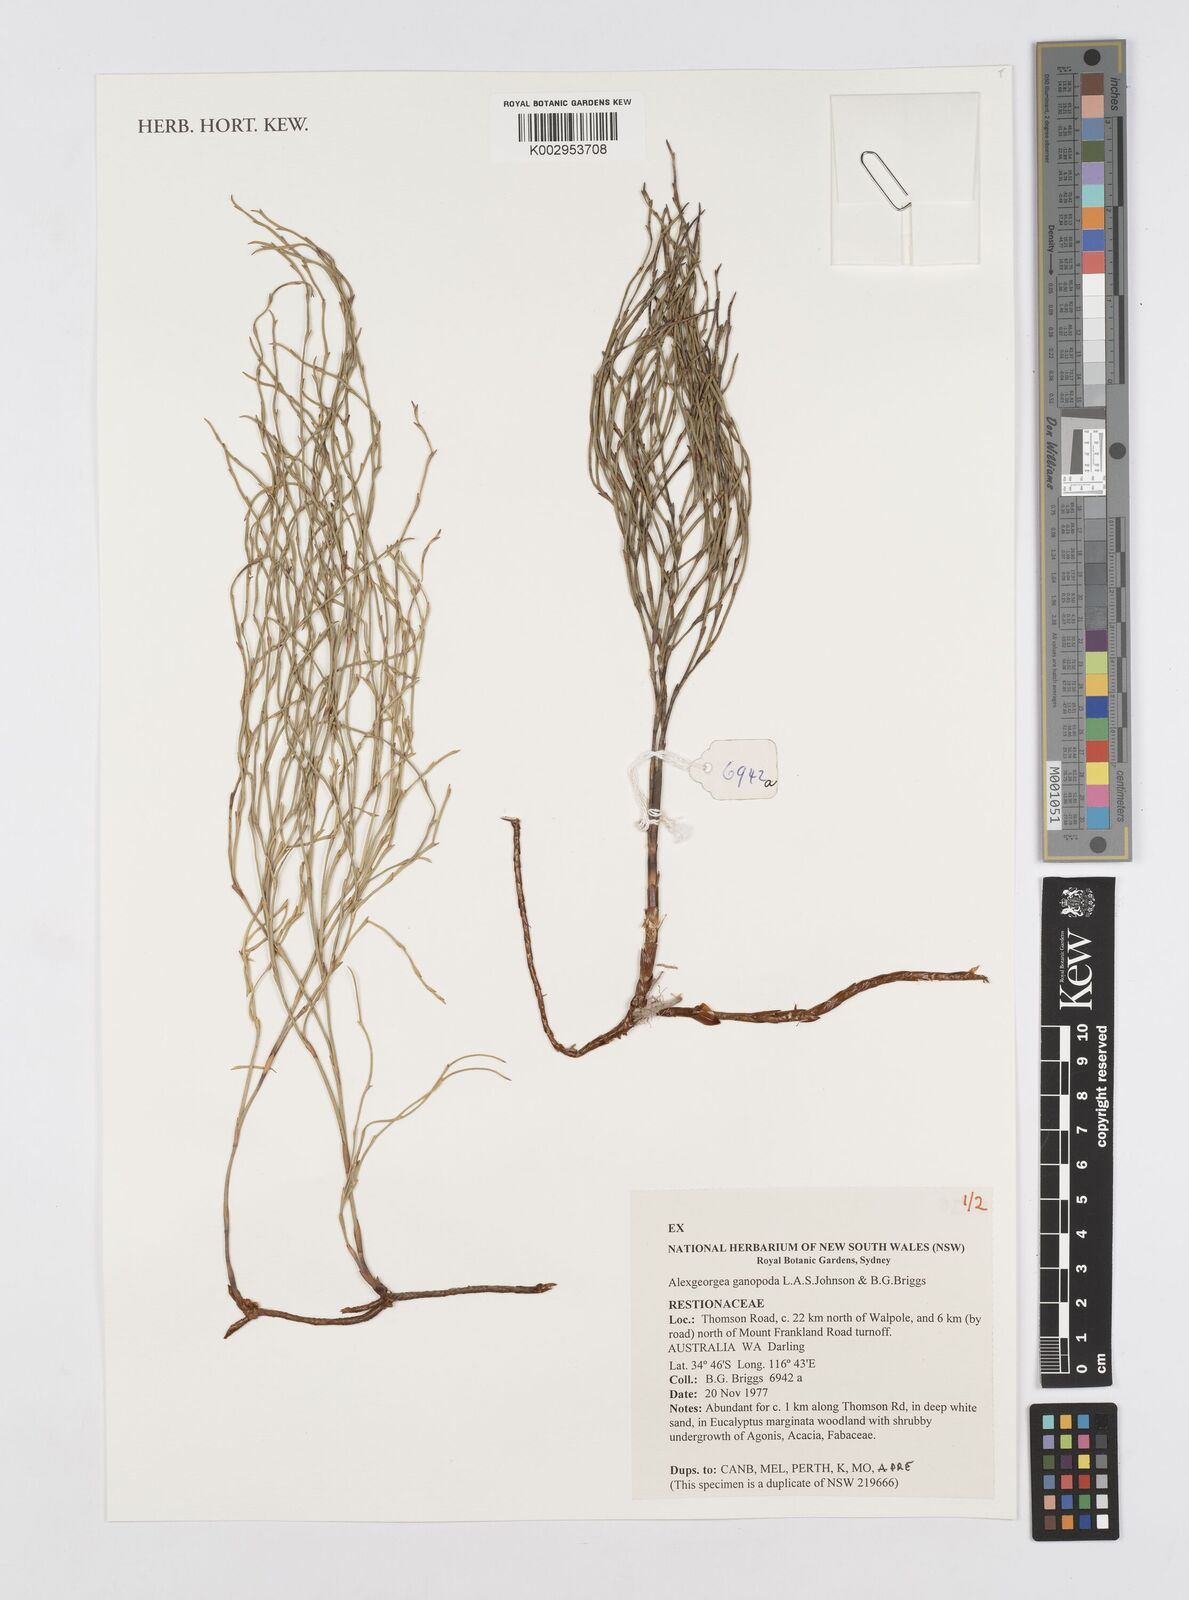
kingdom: Plantae
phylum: Tracheophyta
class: Liliopsida
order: Poales
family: Restionaceae
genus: Alexgeorgea
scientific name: Alexgeorgea ganopoda
